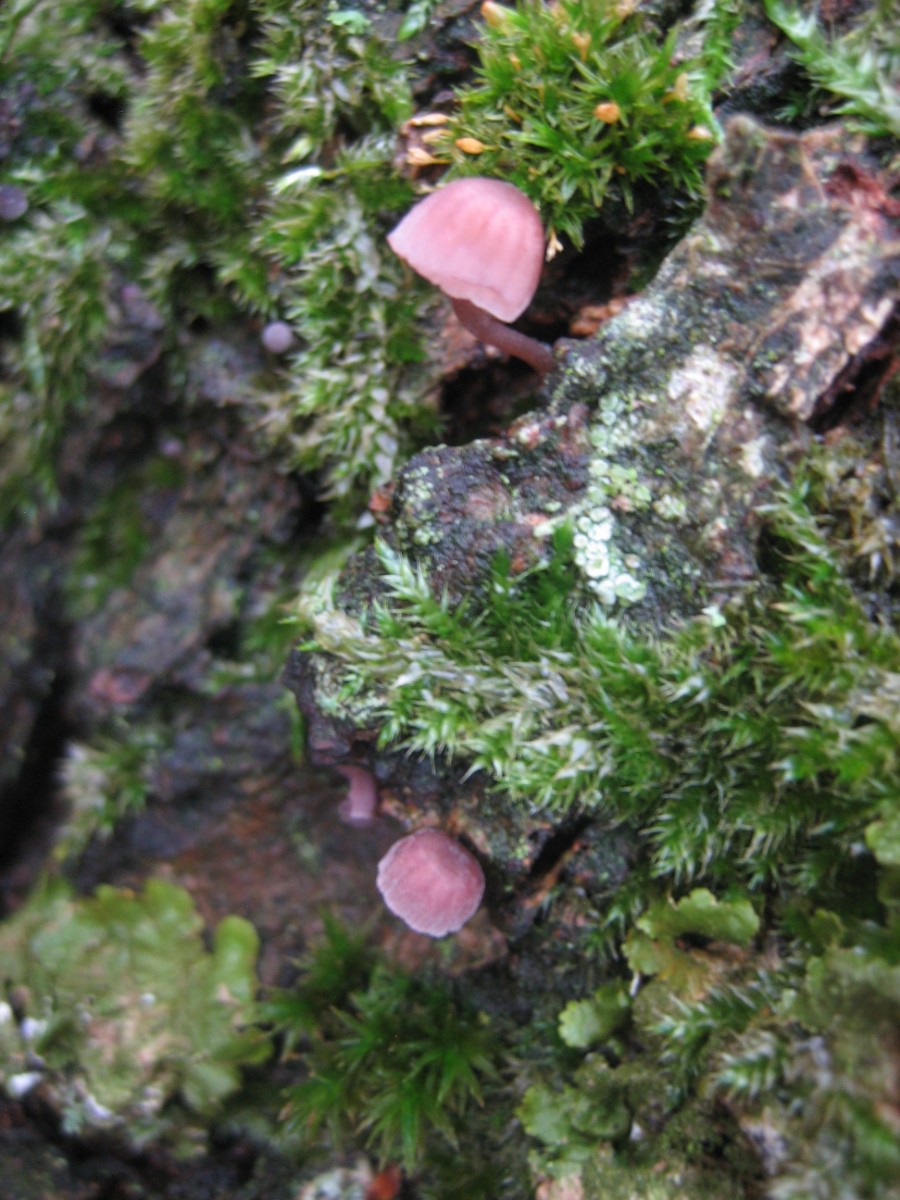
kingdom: Fungi
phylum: Basidiomycota
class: Agaricomycetes
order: Agaricales
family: Mycenaceae
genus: Mycena
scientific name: Mycena meliigena
